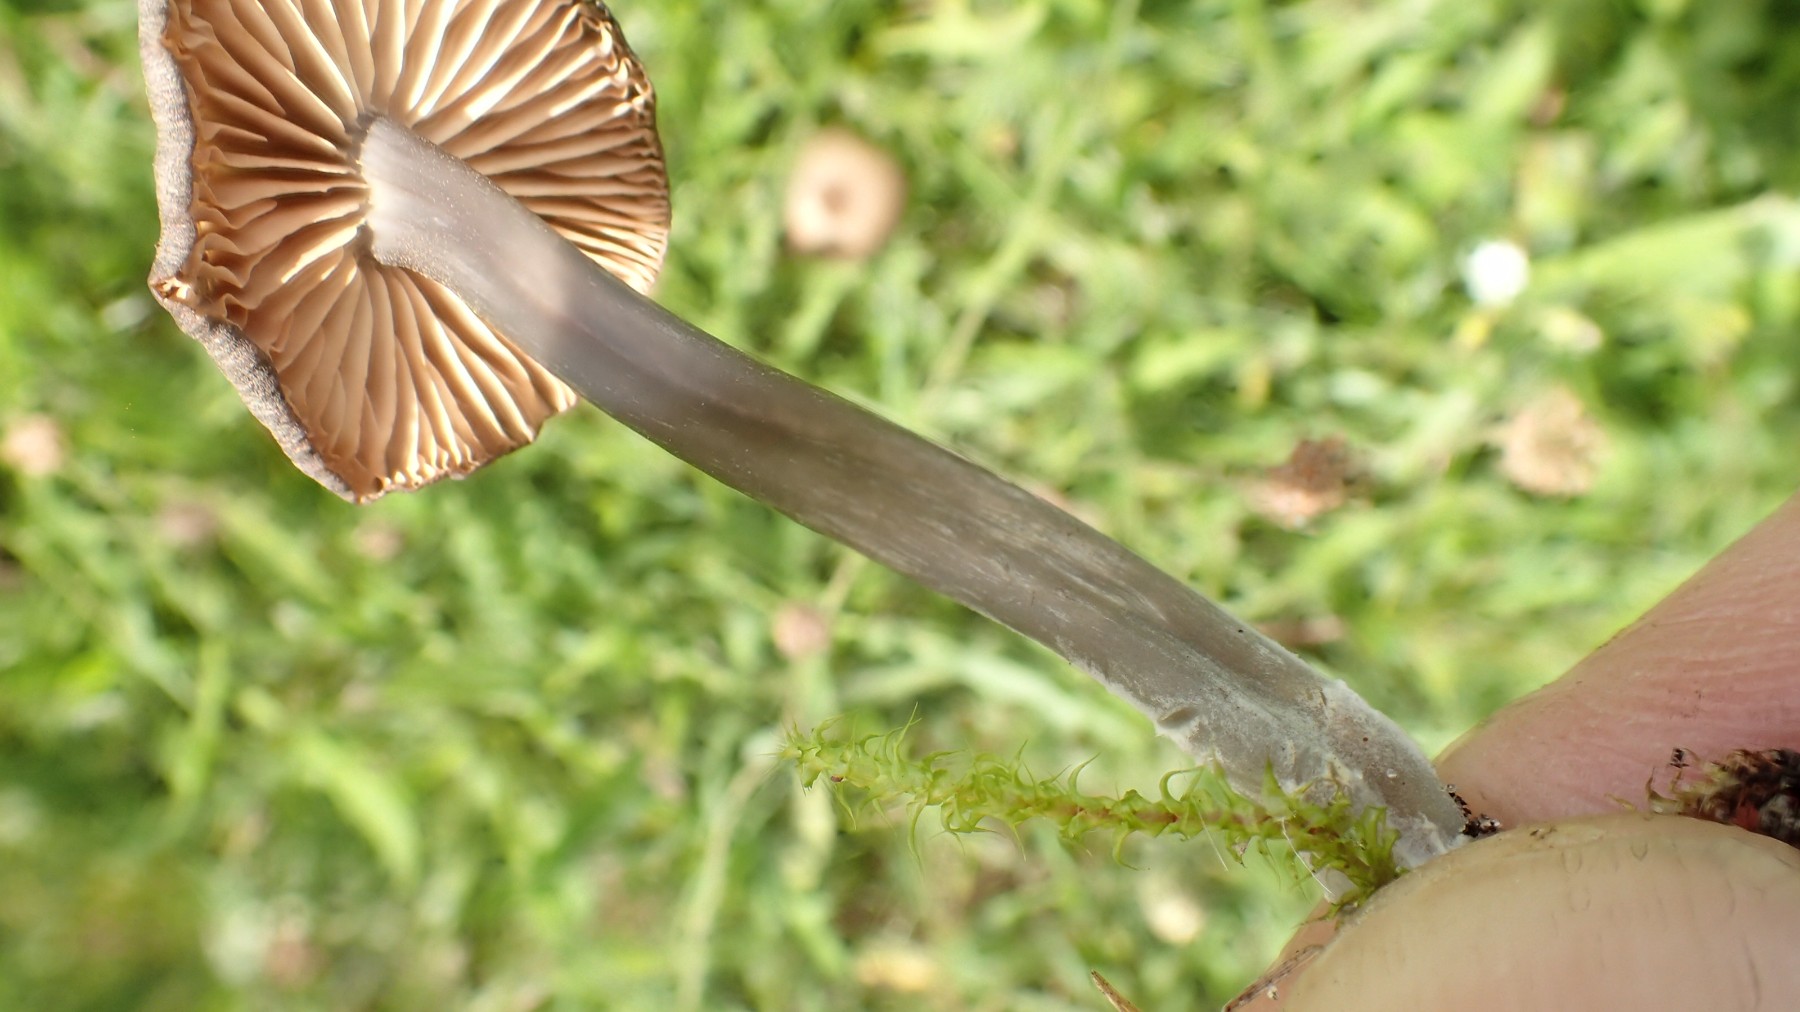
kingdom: Fungi
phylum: Basidiomycota
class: Agaricomycetes
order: Agaricales
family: Entolomataceae
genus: Entoloma
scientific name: Entoloma asprellum
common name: ru rødblad
